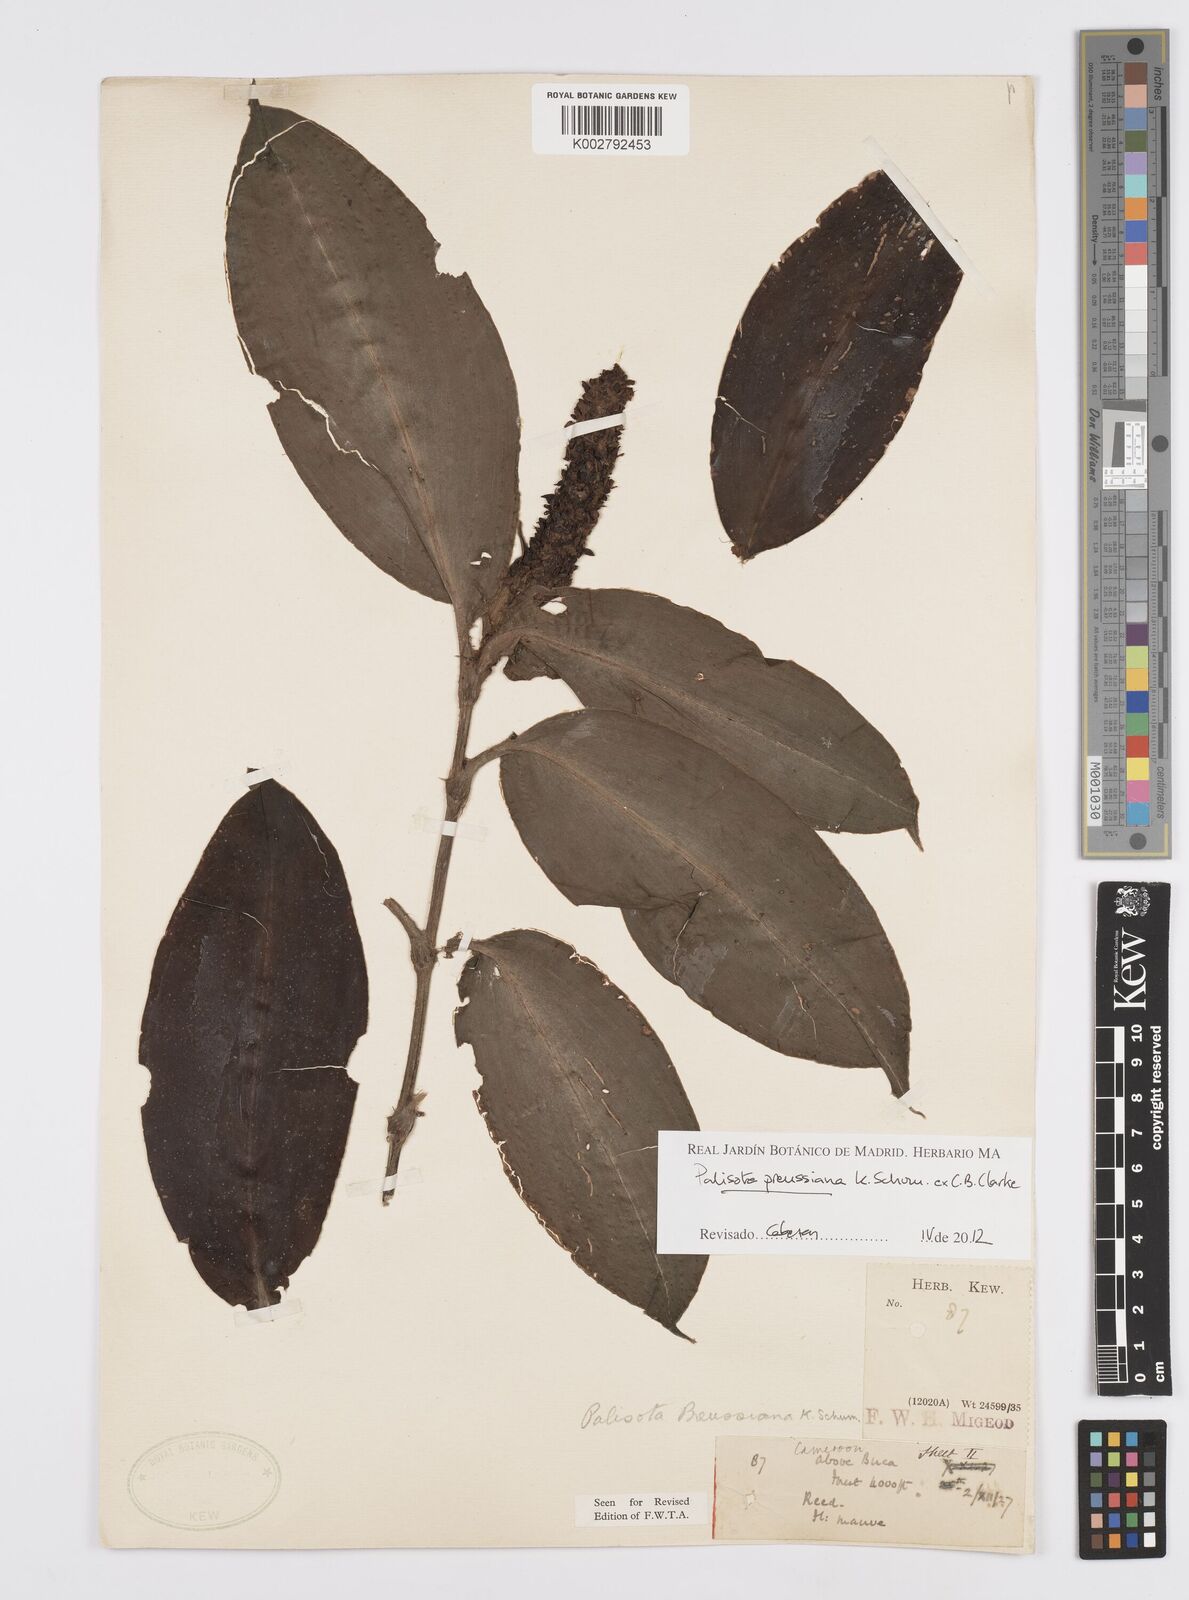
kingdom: Plantae
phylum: Tracheophyta
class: Liliopsida
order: Commelinales
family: Commelinaceae
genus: Palisota
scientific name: Palisota preussiana
